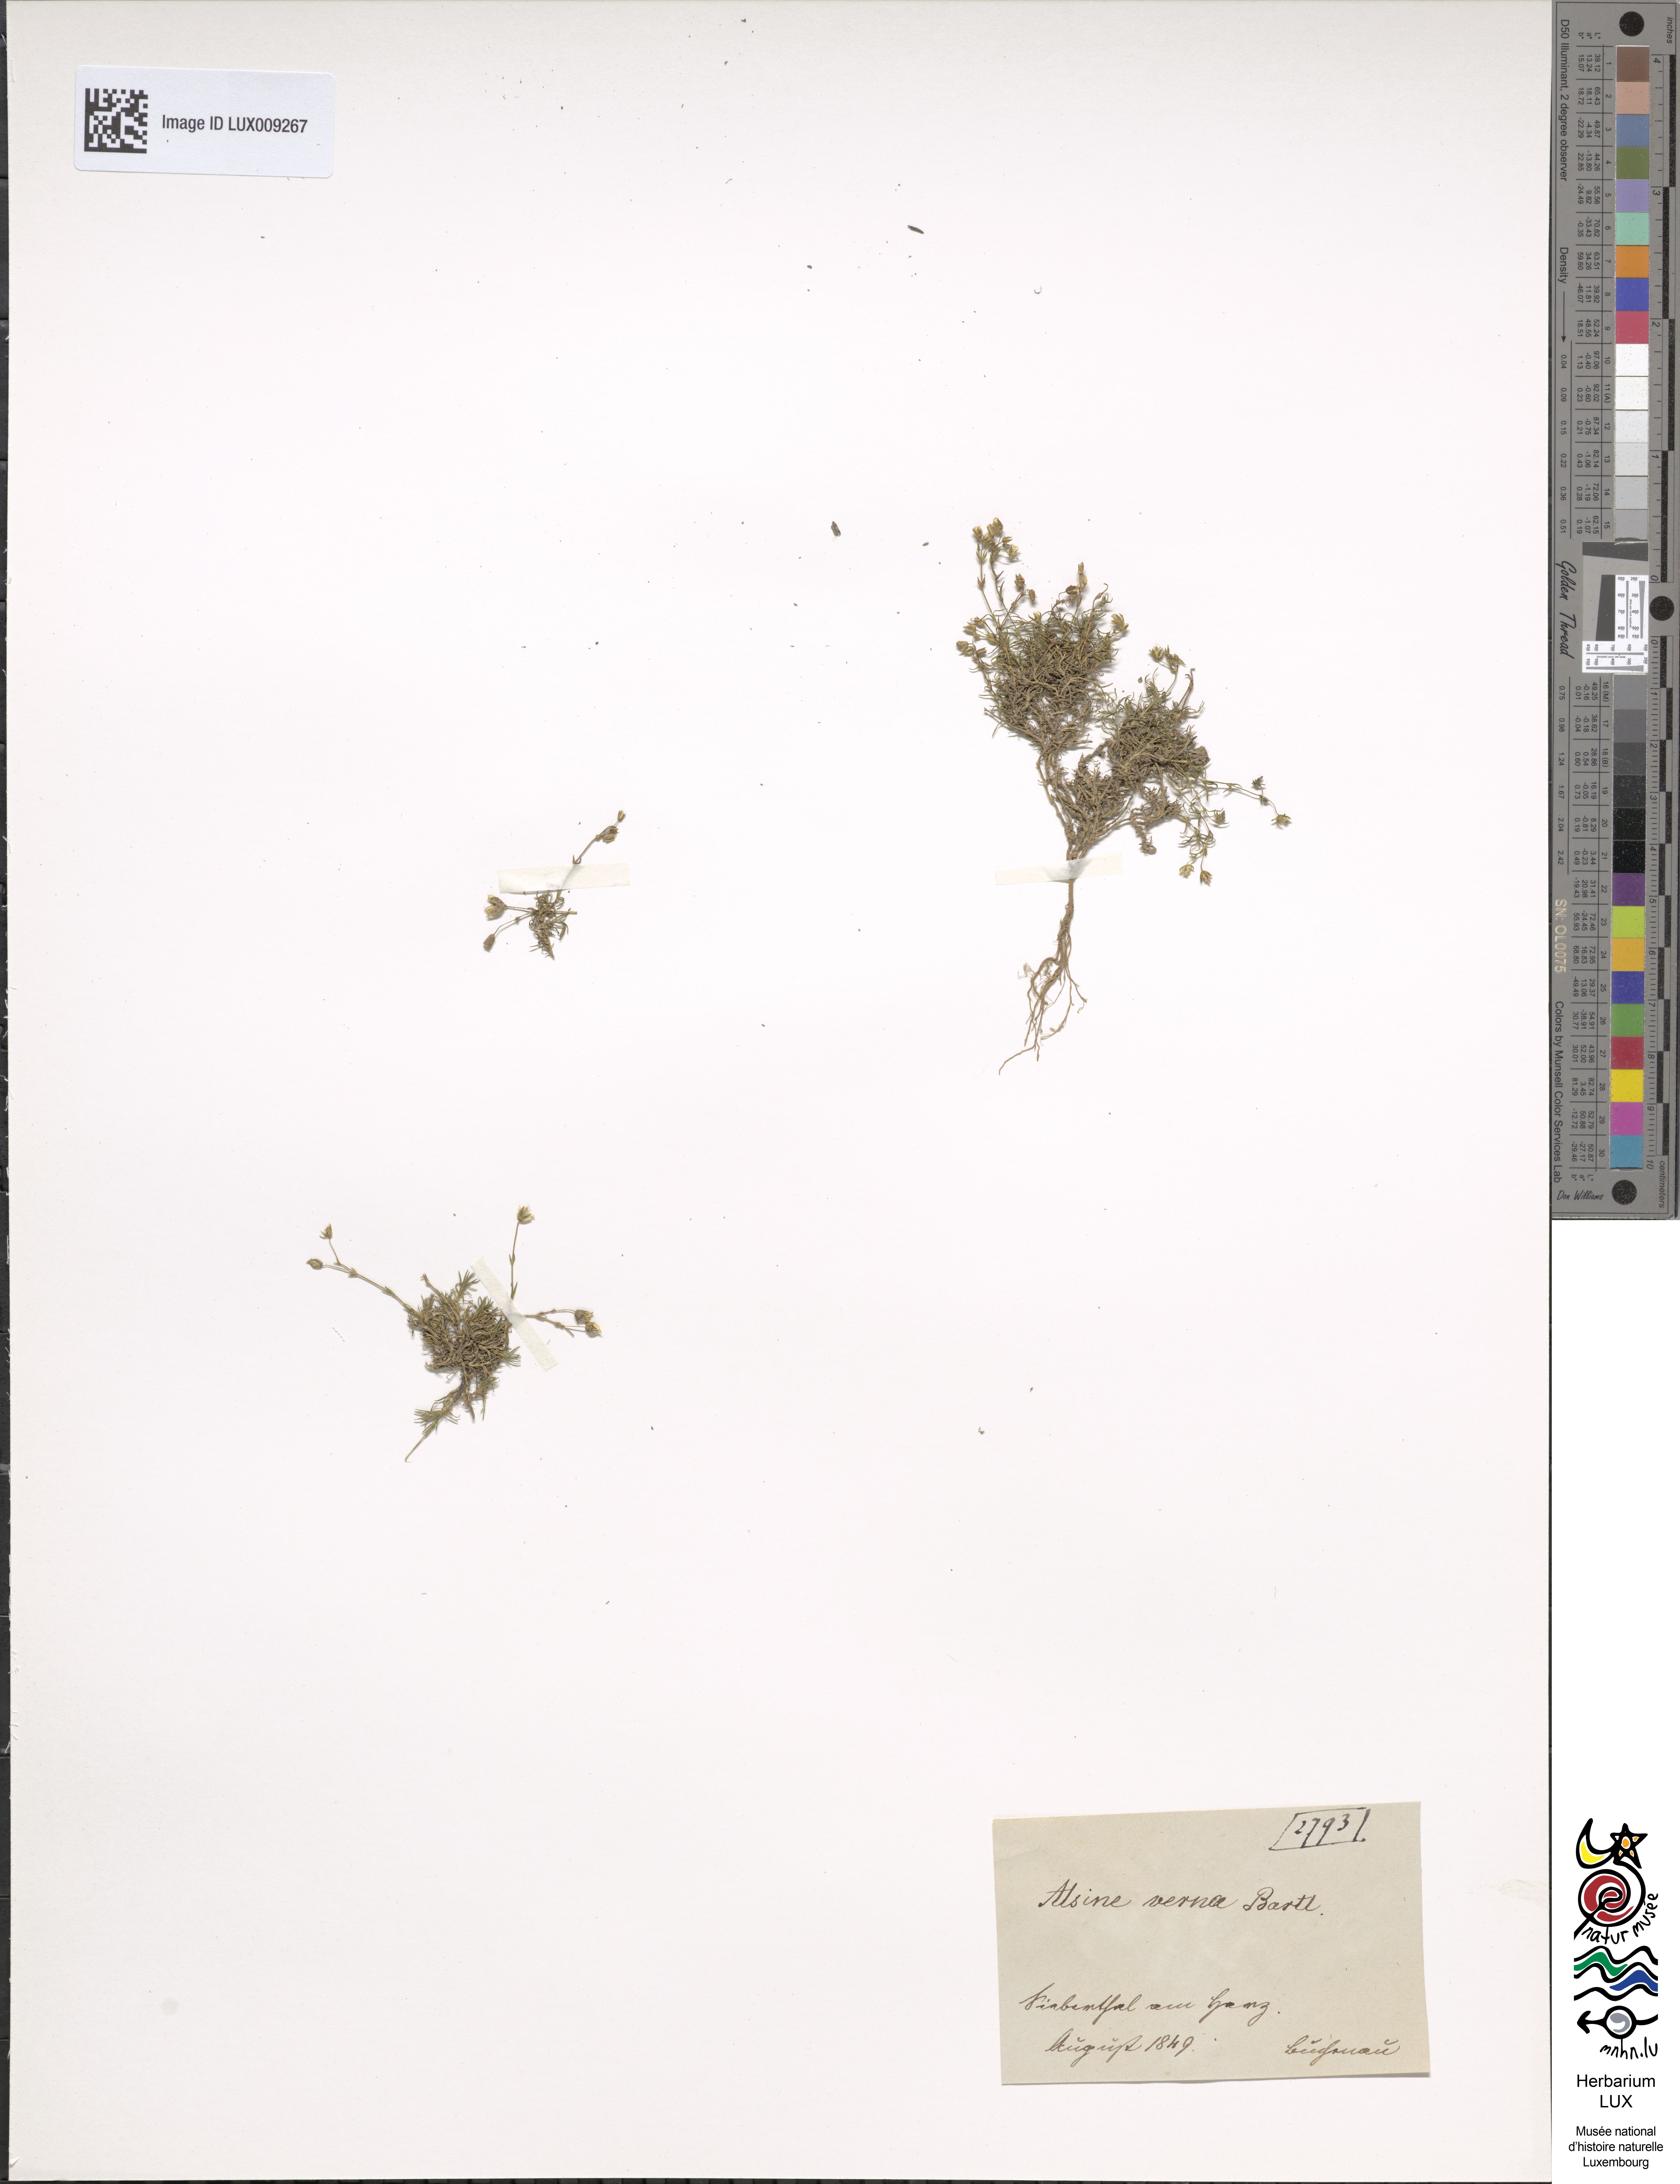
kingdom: Plantae
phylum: Tracheophyta
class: Magnoliopsida
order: Caryophyllales
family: Caryophyllaceae
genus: Sabulina
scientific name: Sabulina verna
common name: Spring sandwort
